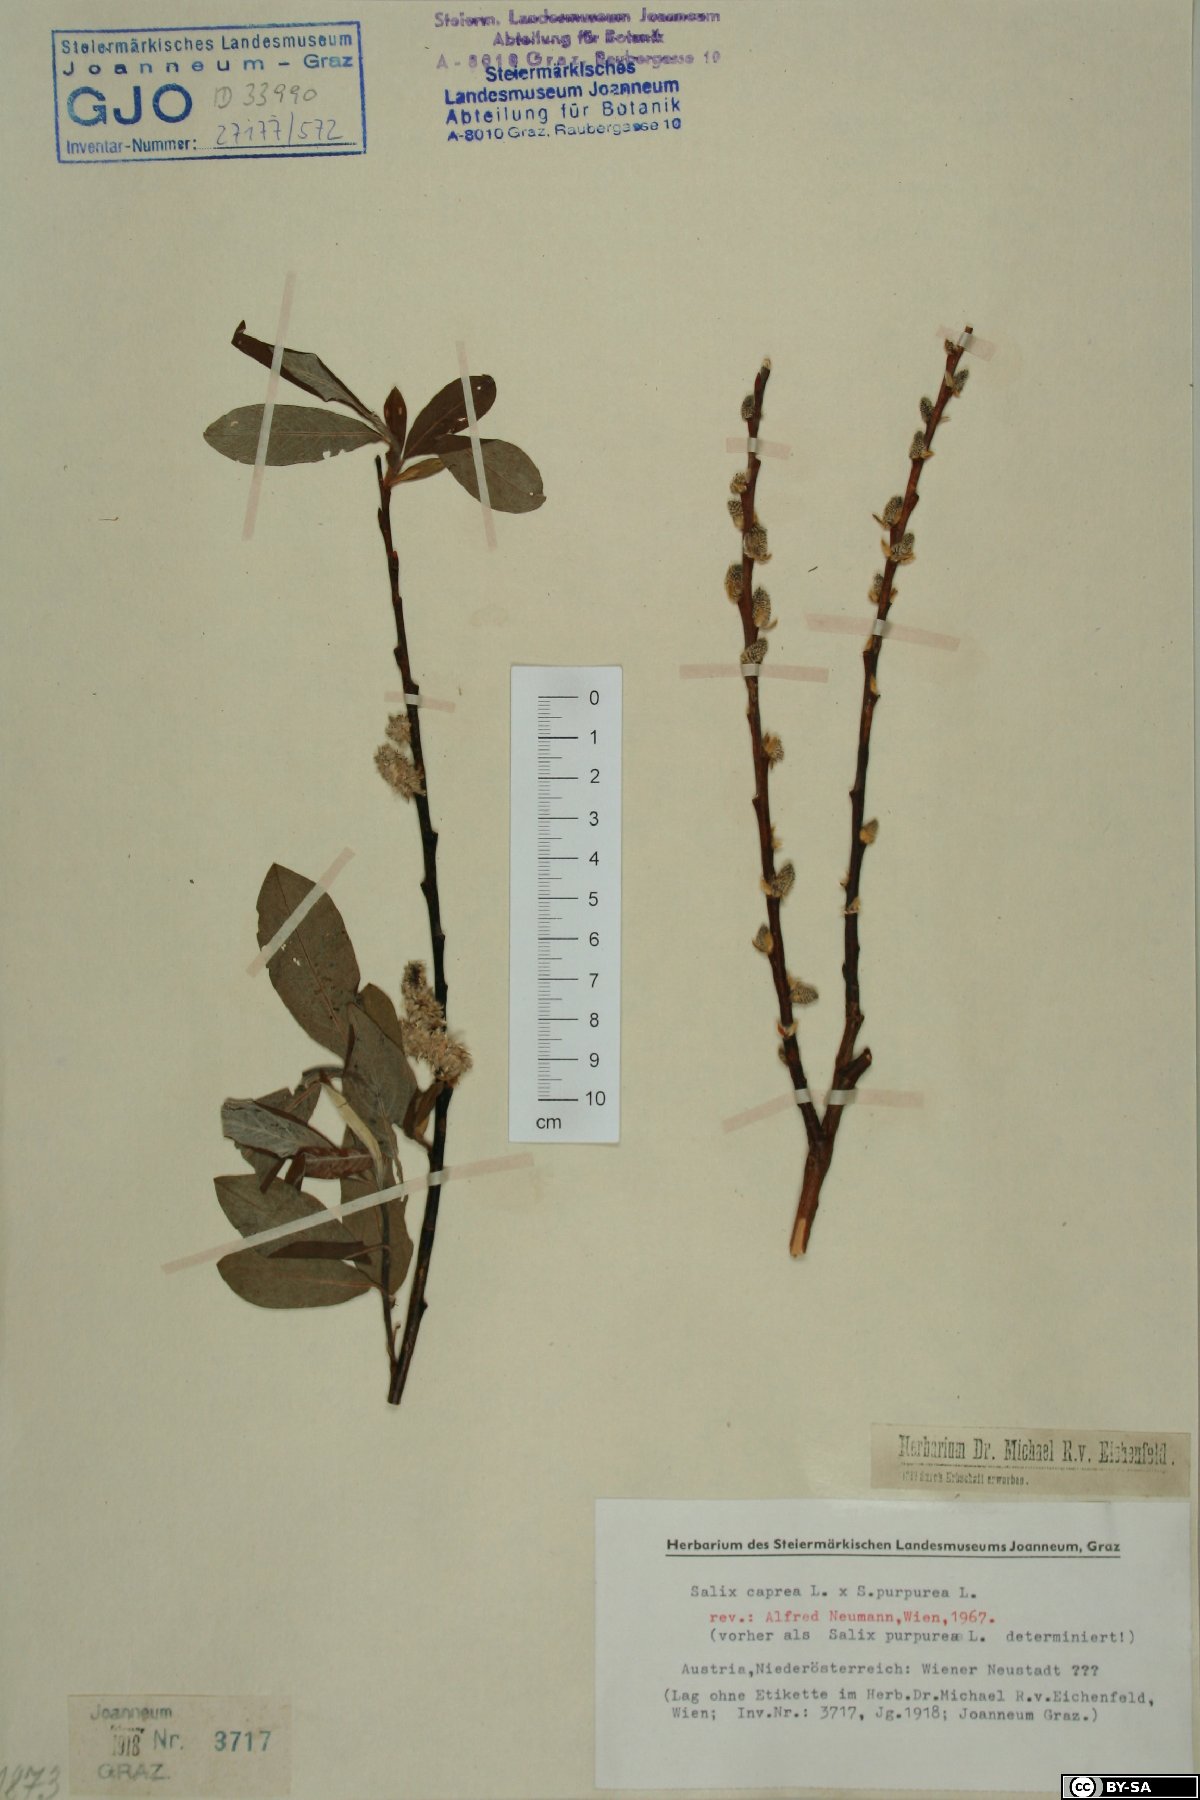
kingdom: Plantae
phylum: Tracheophyta
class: Magnoliopsida
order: Malpighiales
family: Salicaceae
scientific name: Salicaceae
